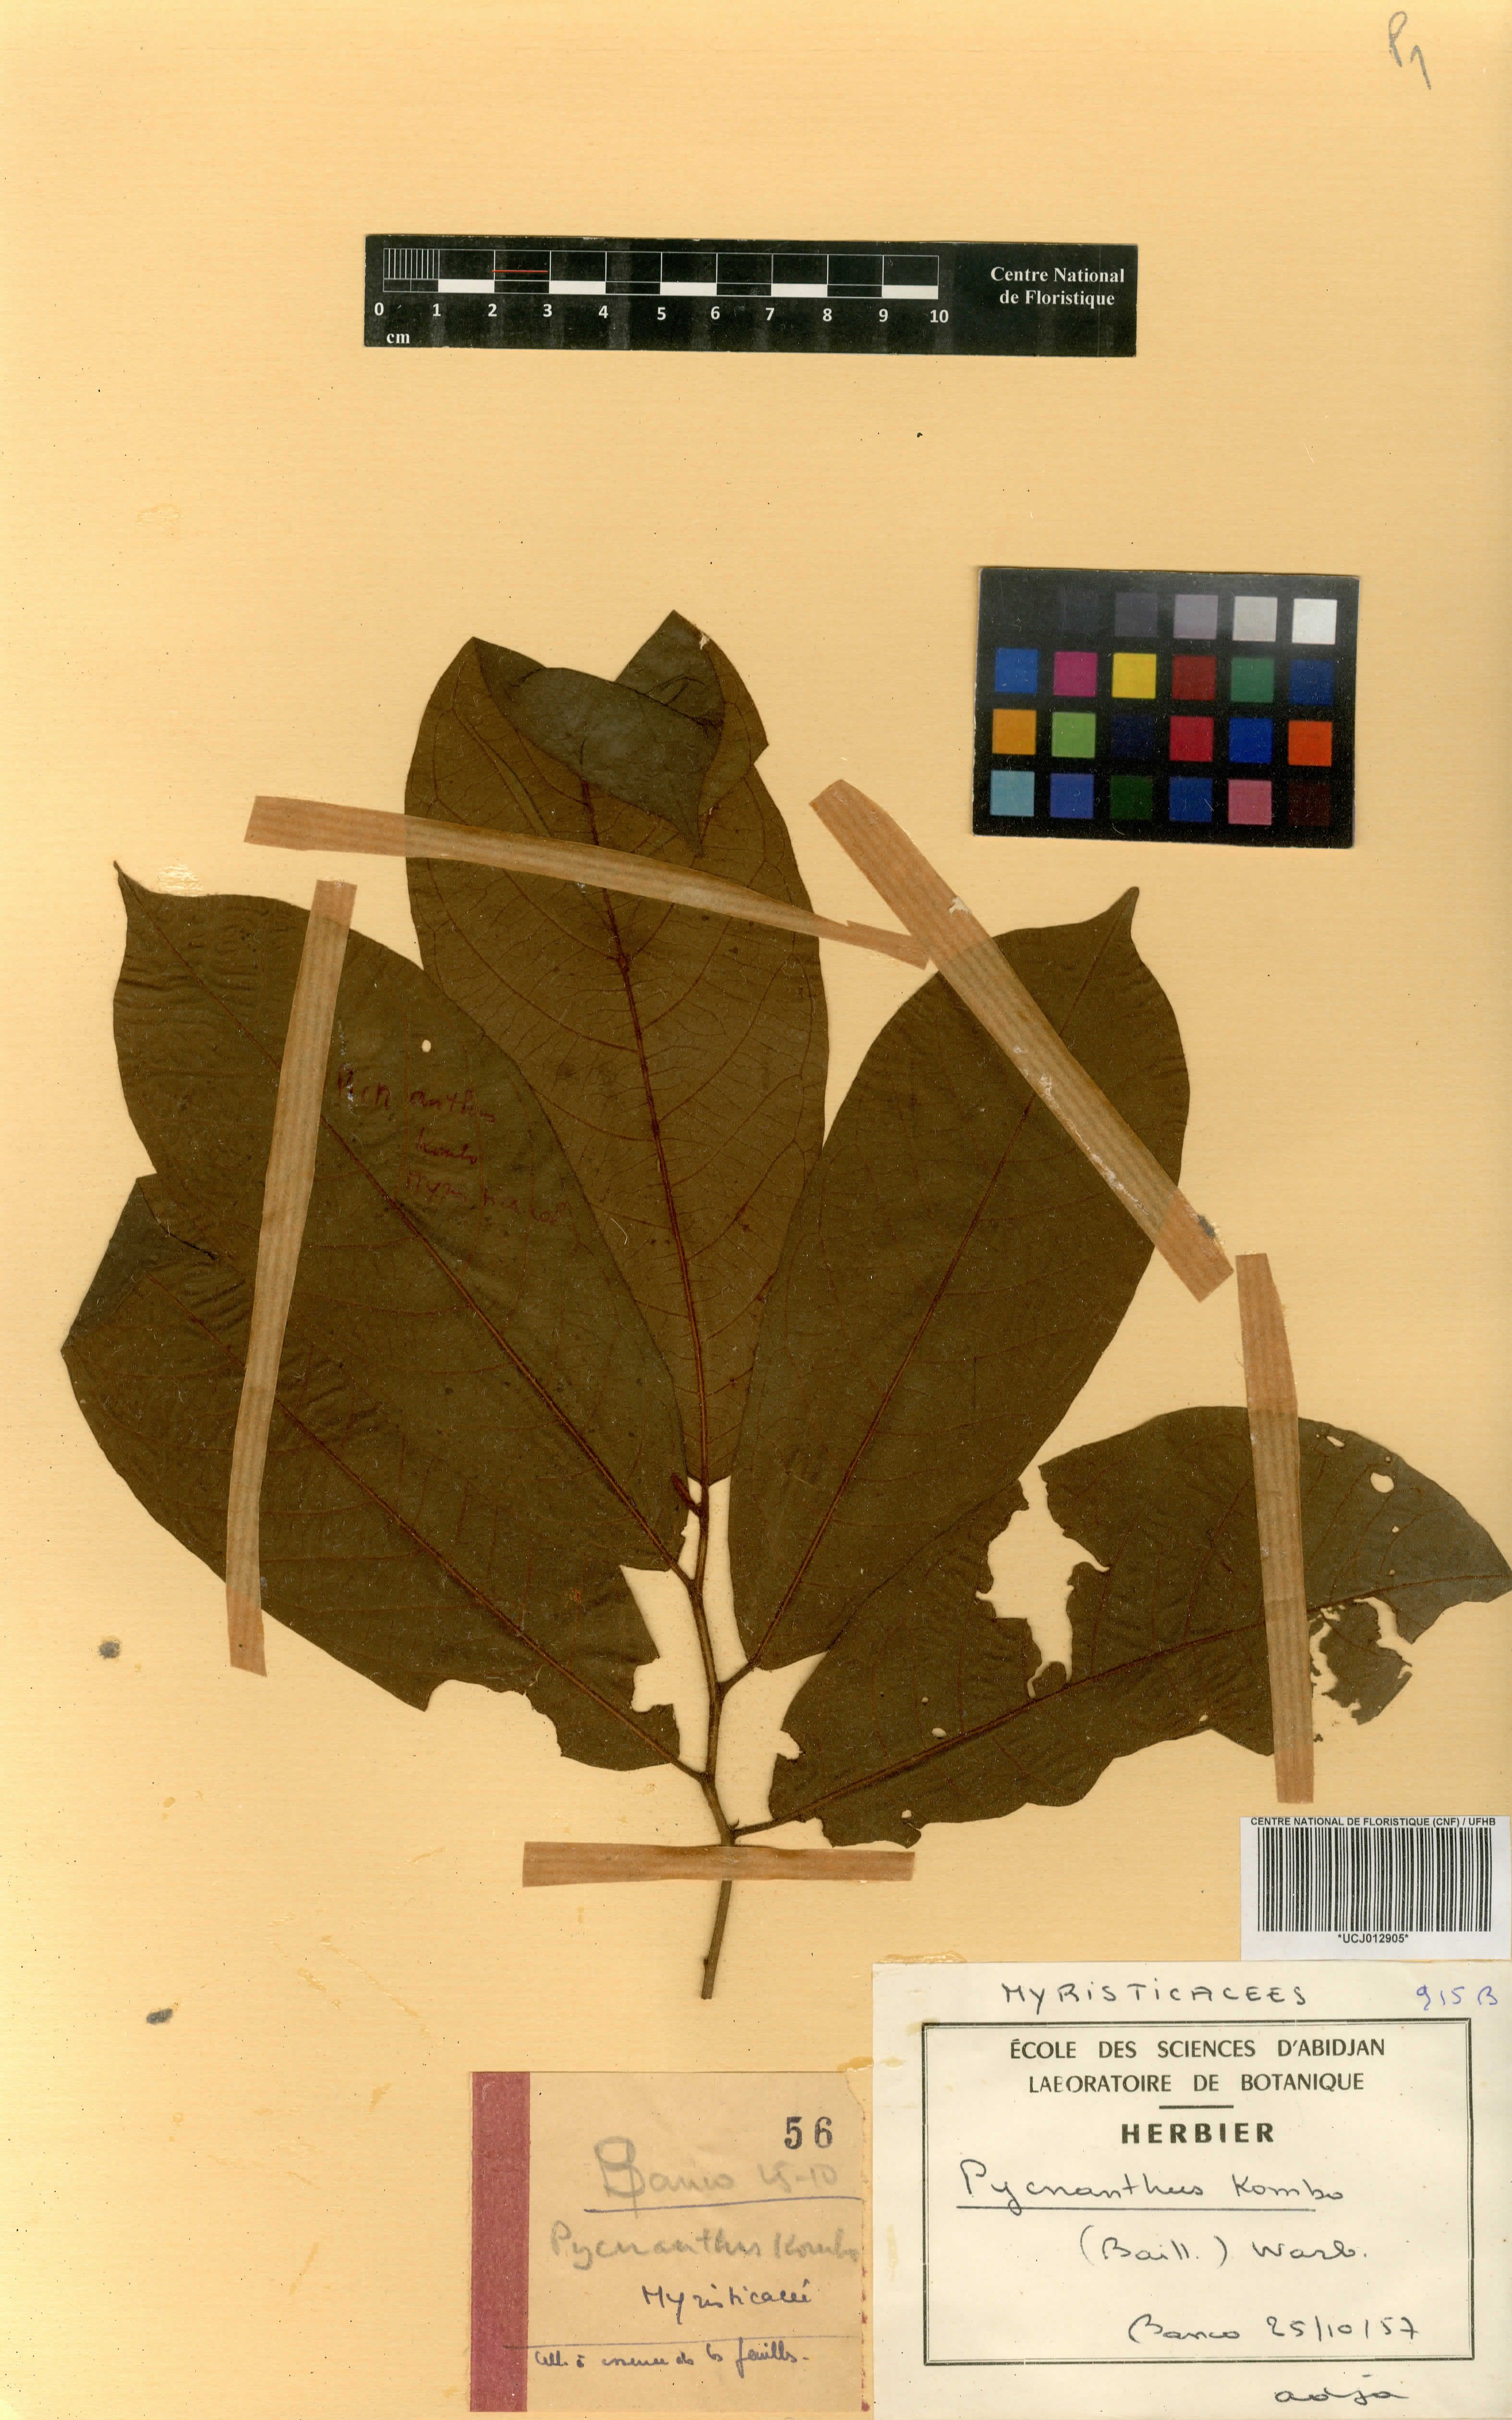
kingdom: Plantae
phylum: Tracheophyta
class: Magnoliopsida
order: Magnoliales
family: Myristicaceae
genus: Pycnanthus
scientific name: Pycnanthus angolensis
